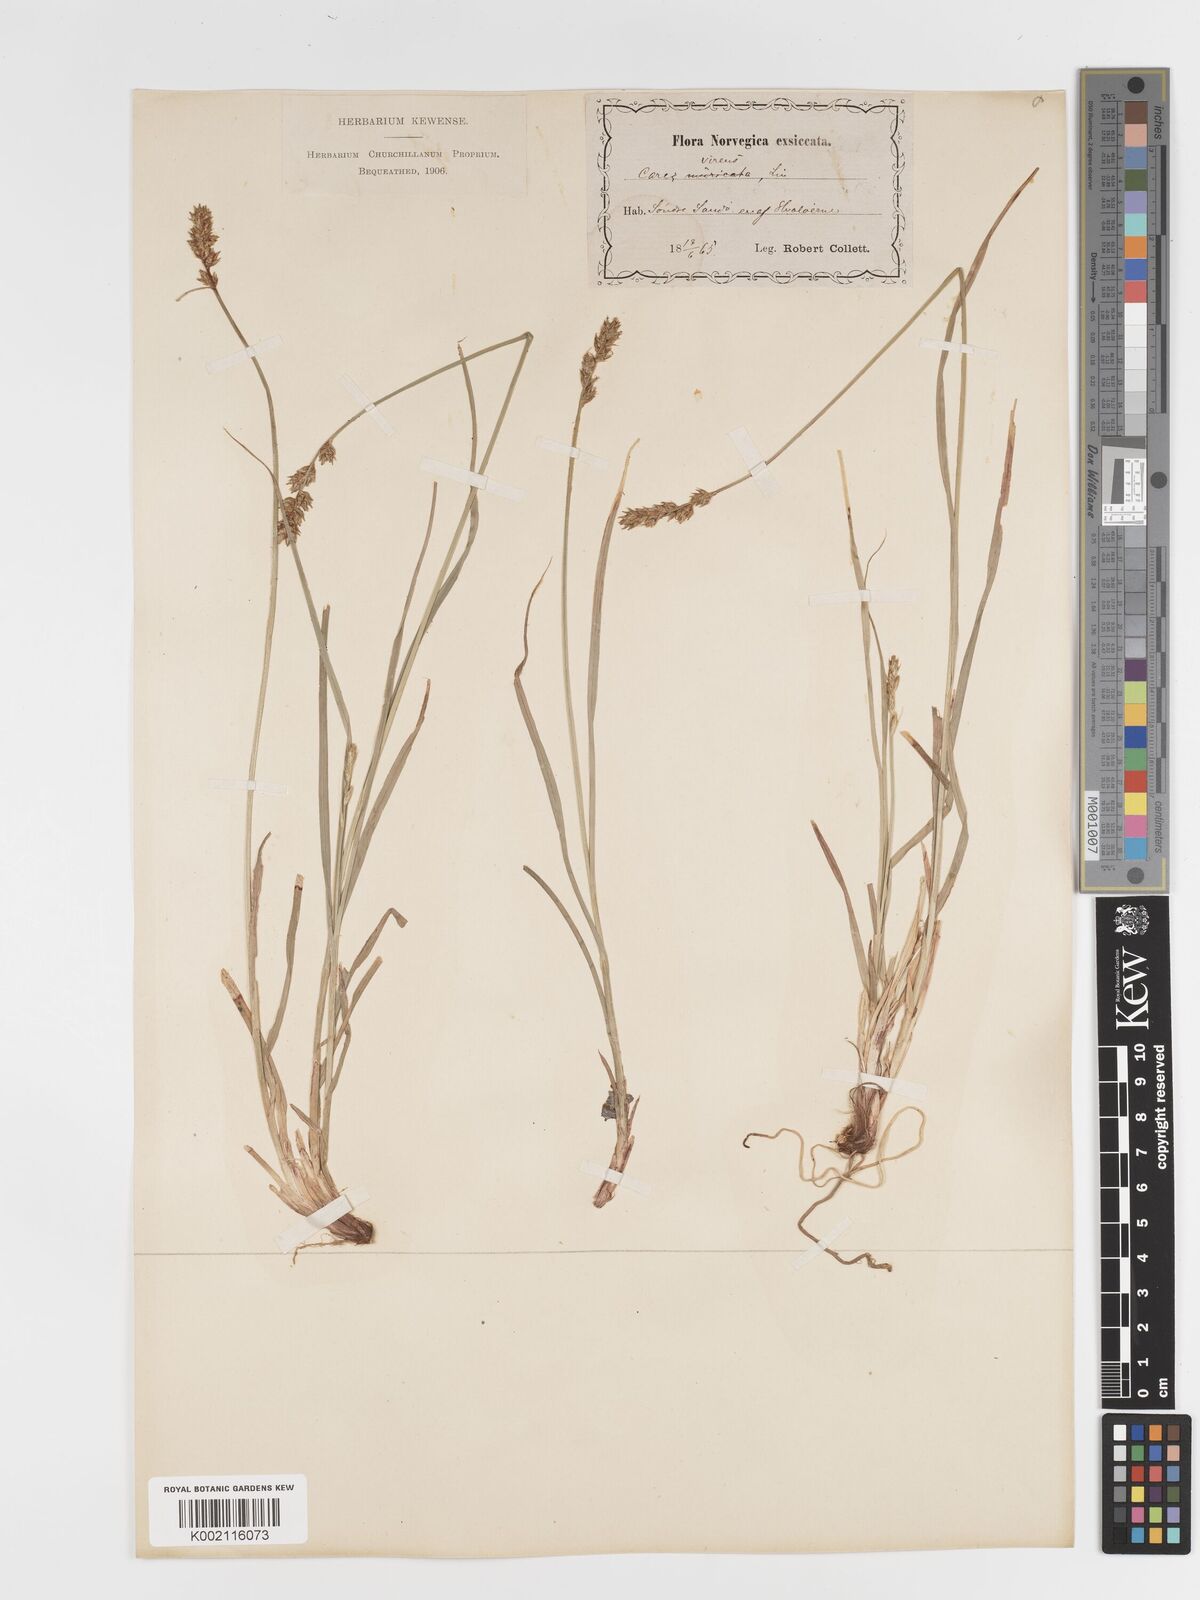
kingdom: Plantae
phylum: Tracheophyta
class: Liliopsida
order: Poales
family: Cyperaceae
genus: Carex
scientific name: Carex spicata
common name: Spiked sedge
